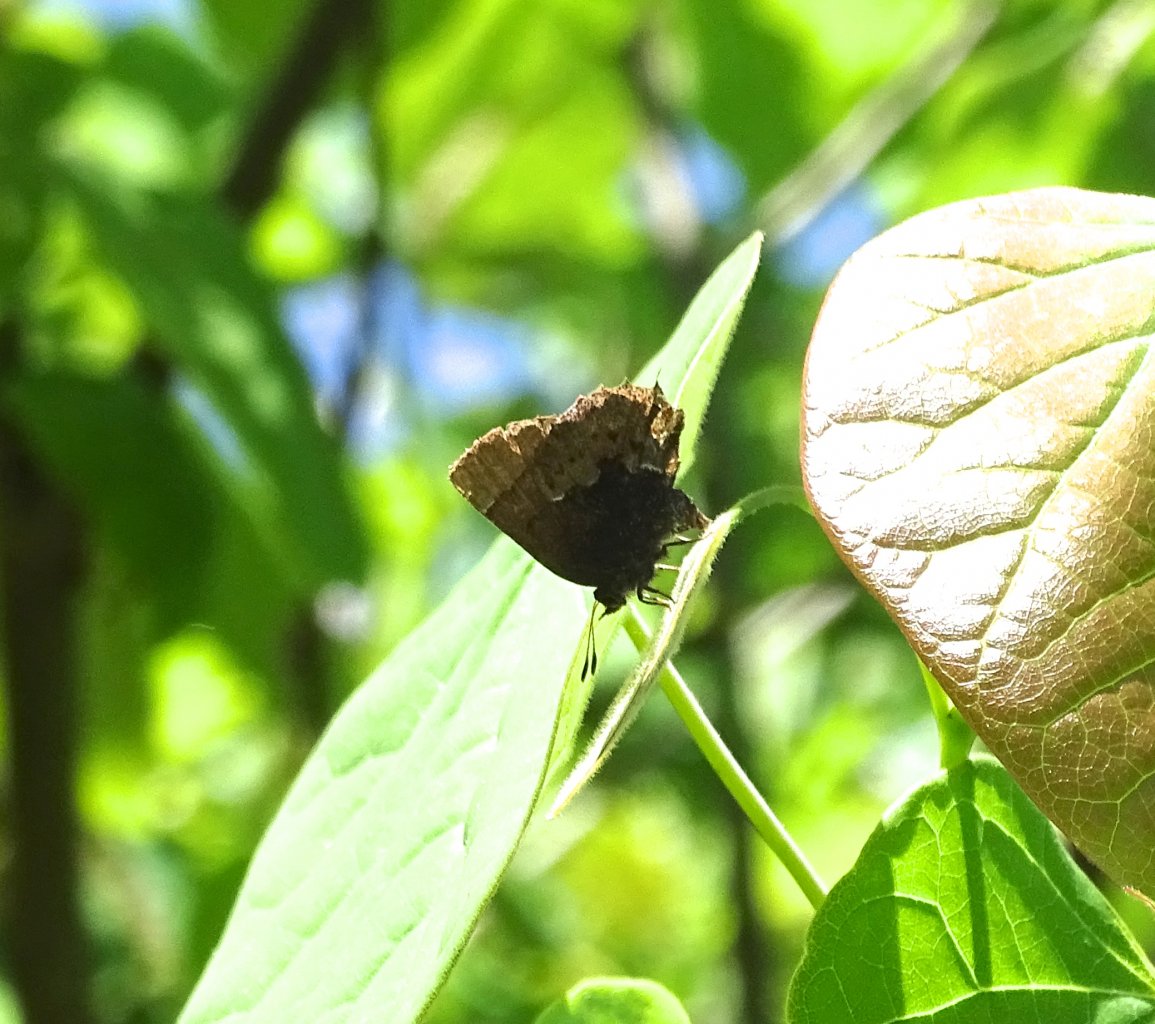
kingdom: Animalia
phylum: Arthropoda
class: Insecta
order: Lepidoptera
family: Lycaenidae
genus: Incisalia
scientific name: Incisalia henrici
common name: Henry's Elfin
